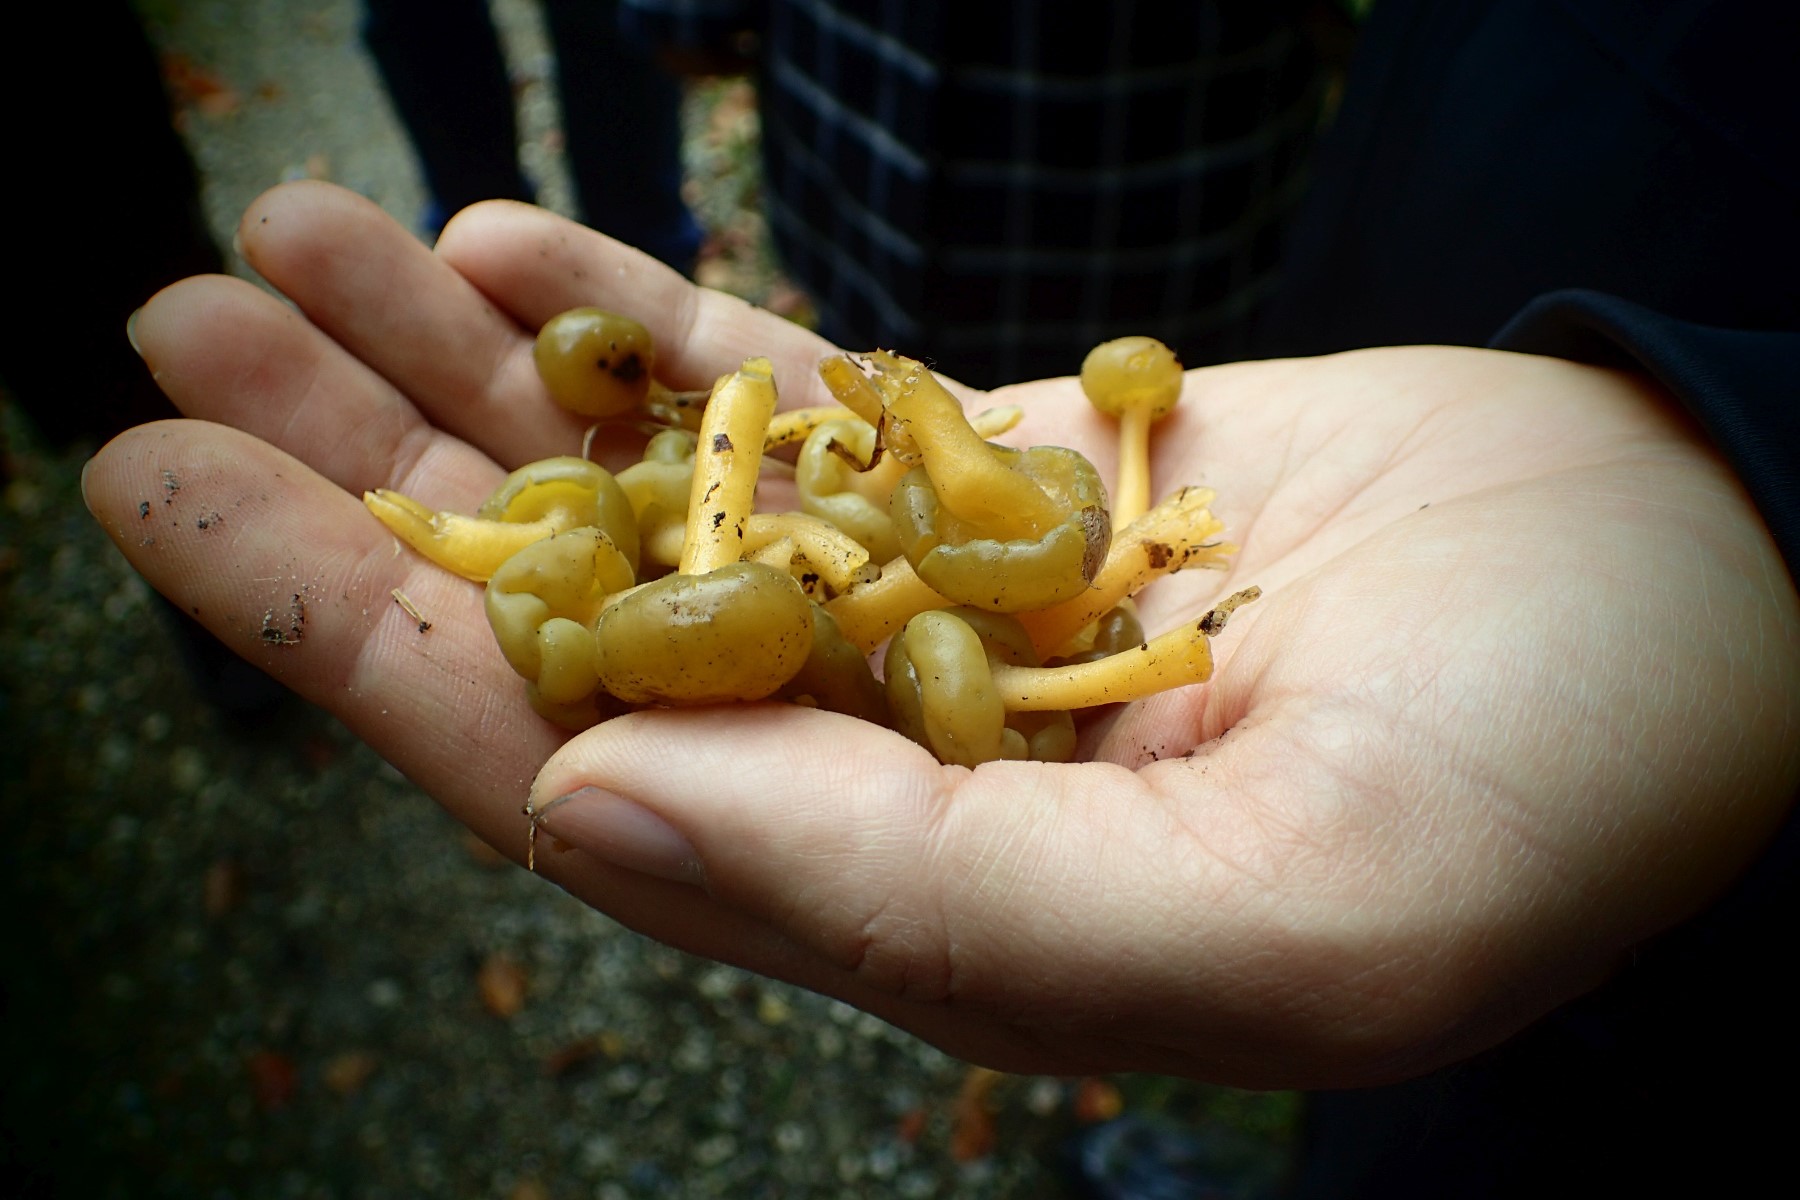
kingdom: Fungi
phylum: Ascomycota
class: Leotiomycetes
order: Leotiales
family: Leotiaceae
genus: Leotia
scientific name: Leotia lubrica
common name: ravsvamp
